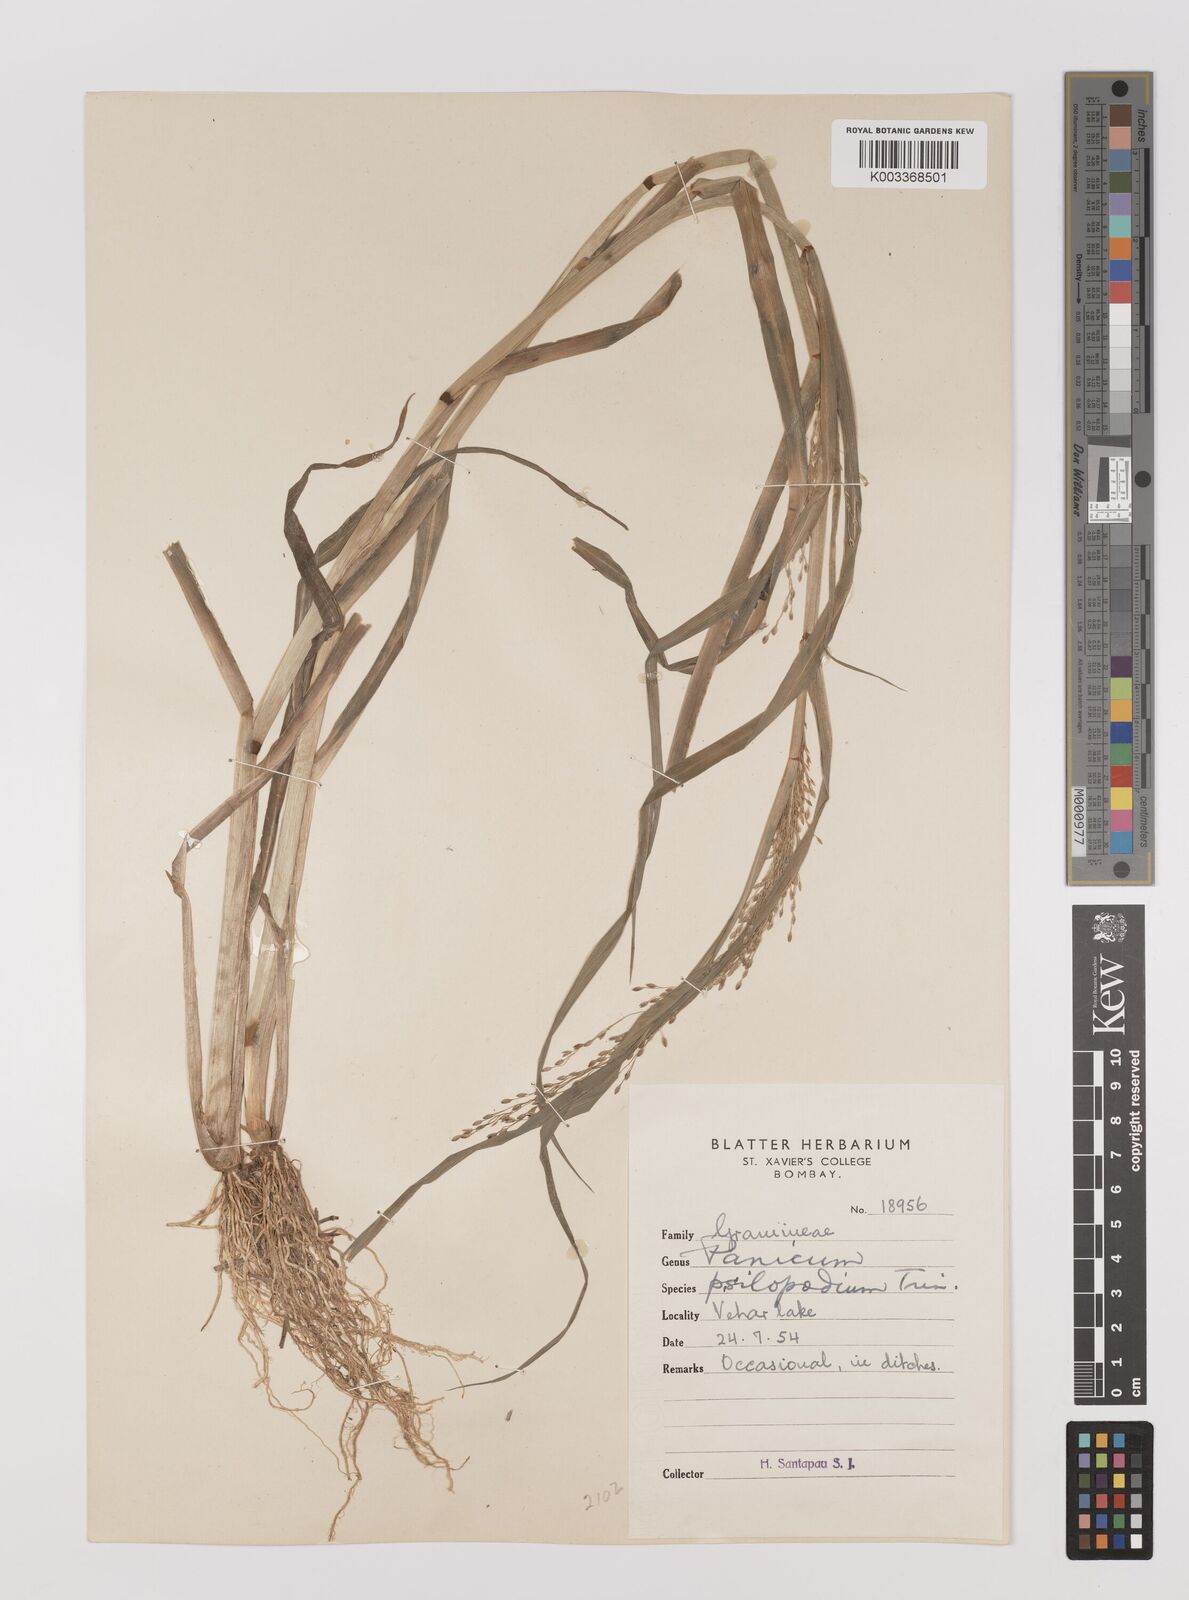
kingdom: Plantae
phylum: Tracheophyta
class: Liliopsida
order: Poales
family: Poaceae
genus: Panicum
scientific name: Panicum sumatrense
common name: Little millet
